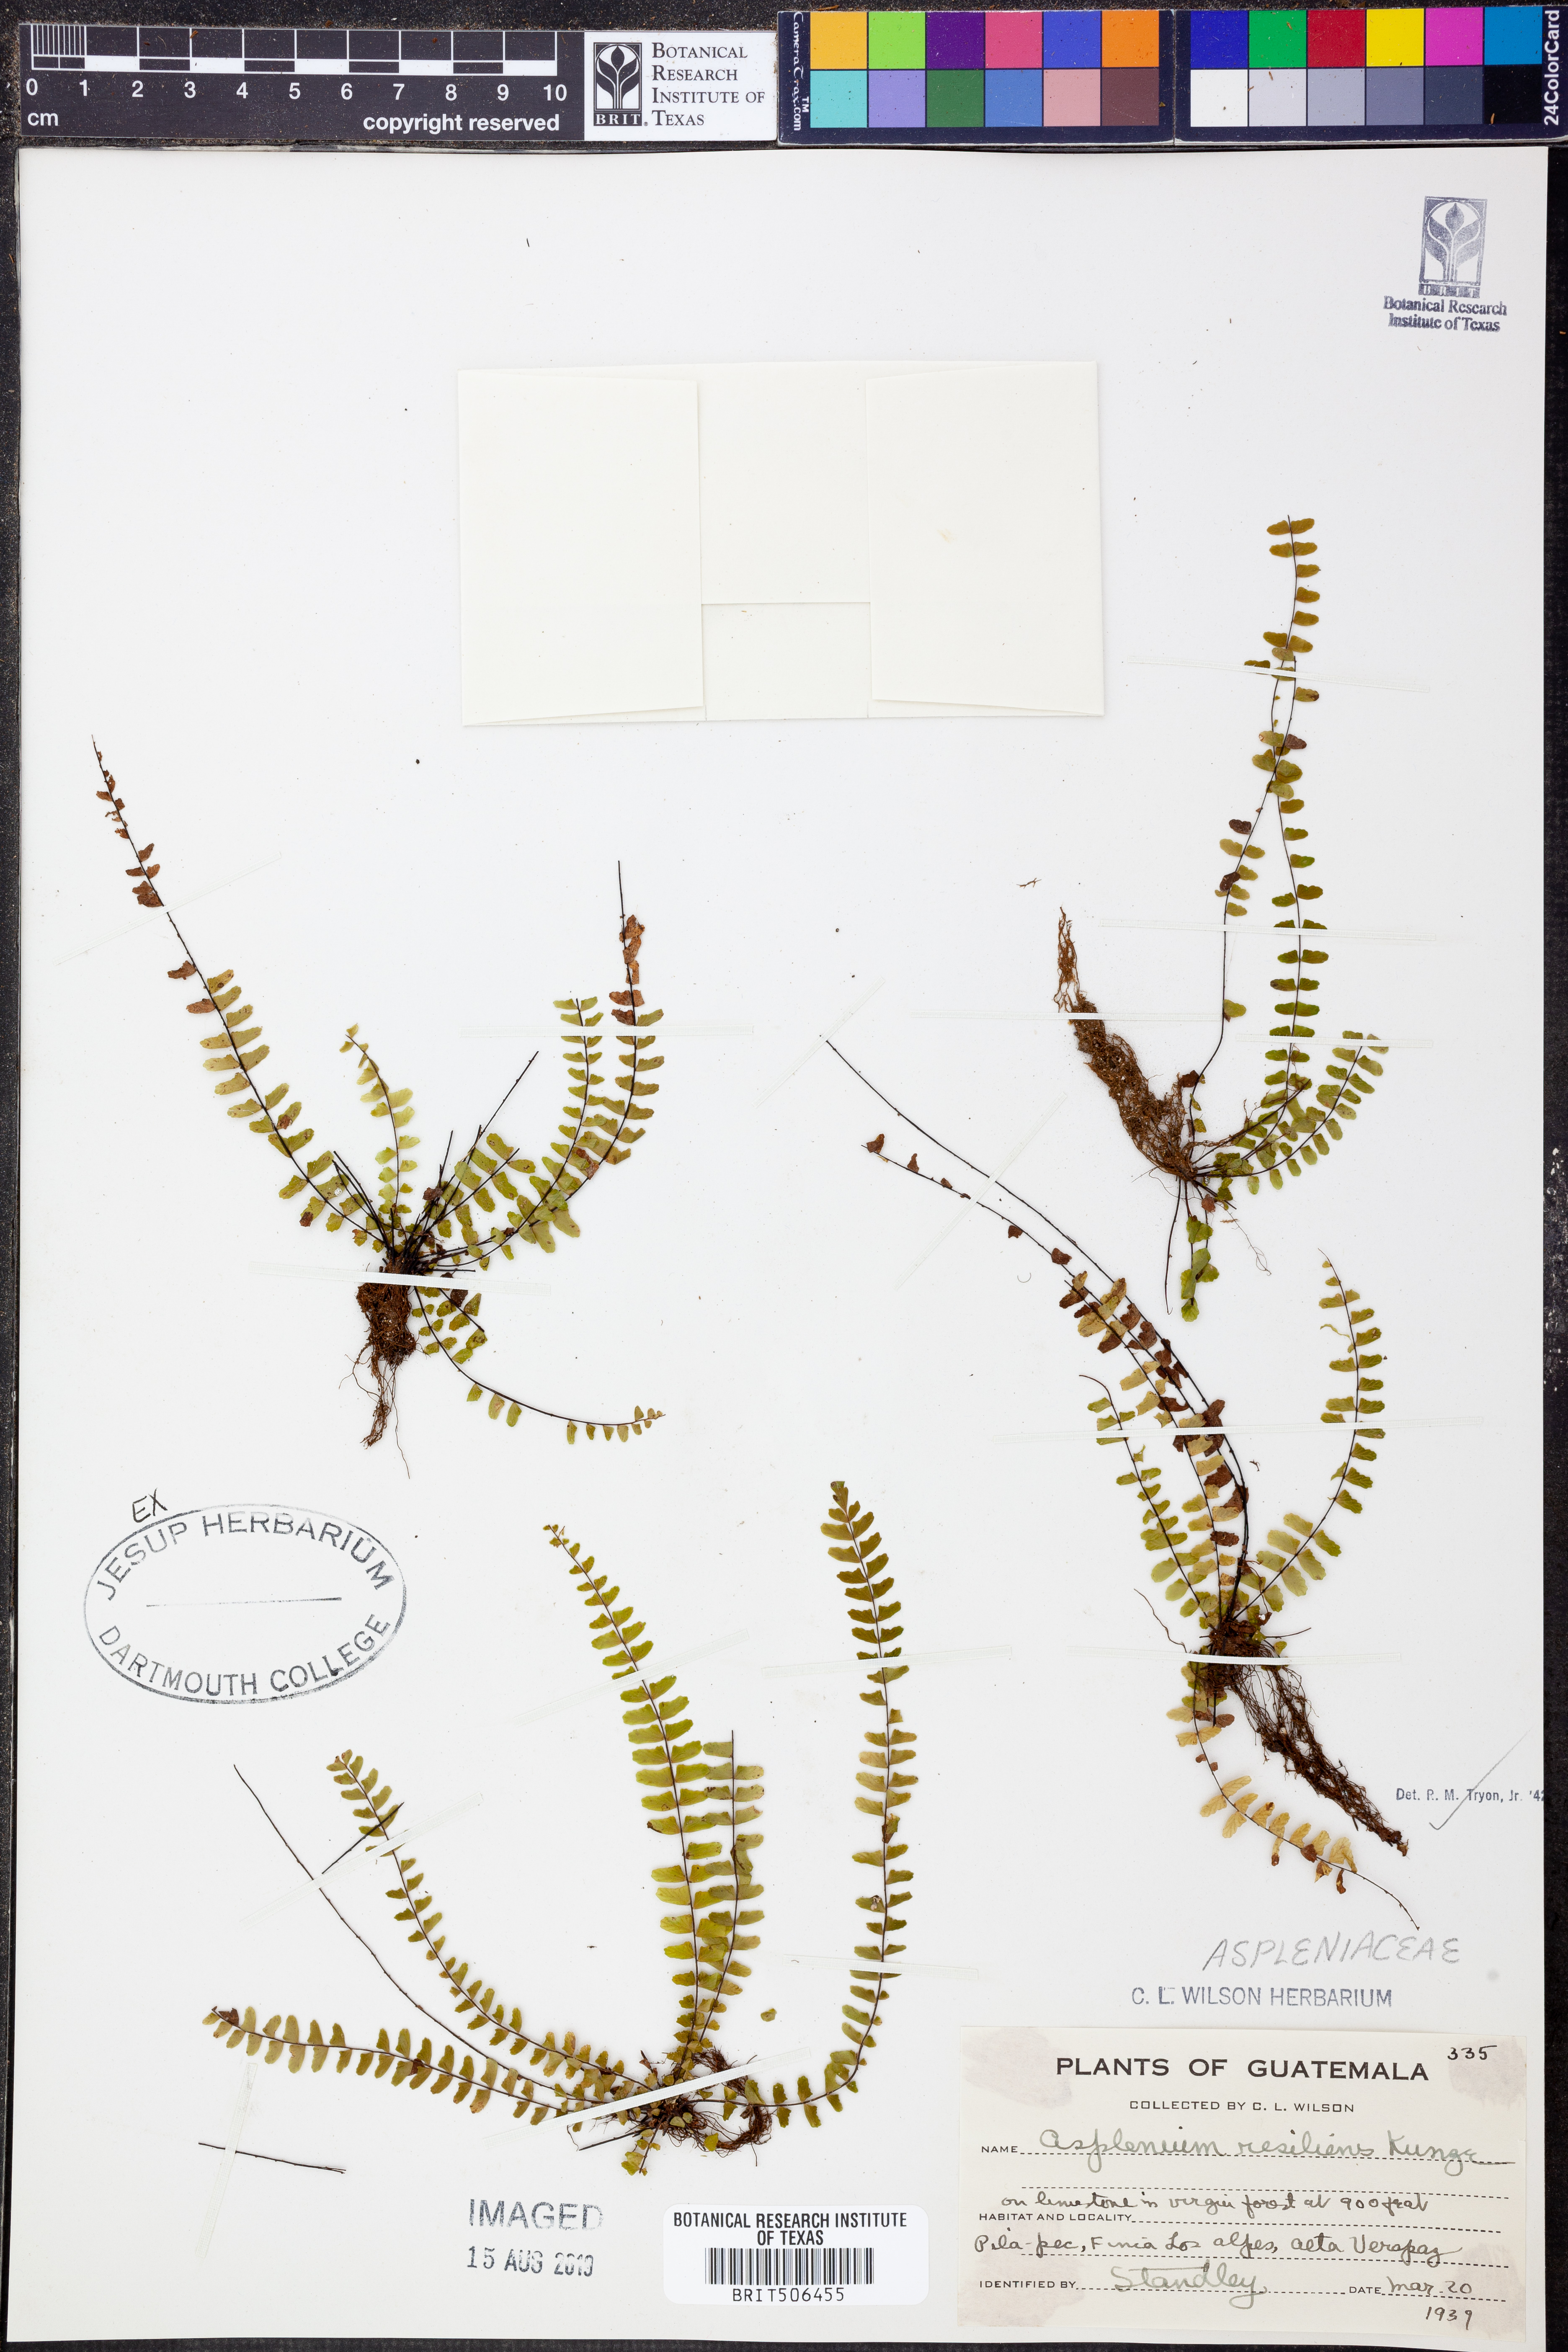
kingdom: Plantae
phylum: Tracheophyta
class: Polypodiopsida
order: Polypodiales
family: Aspleniaceae
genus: Asplenium
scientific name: Asplenium resiliens
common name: Blackstem spleenwort
